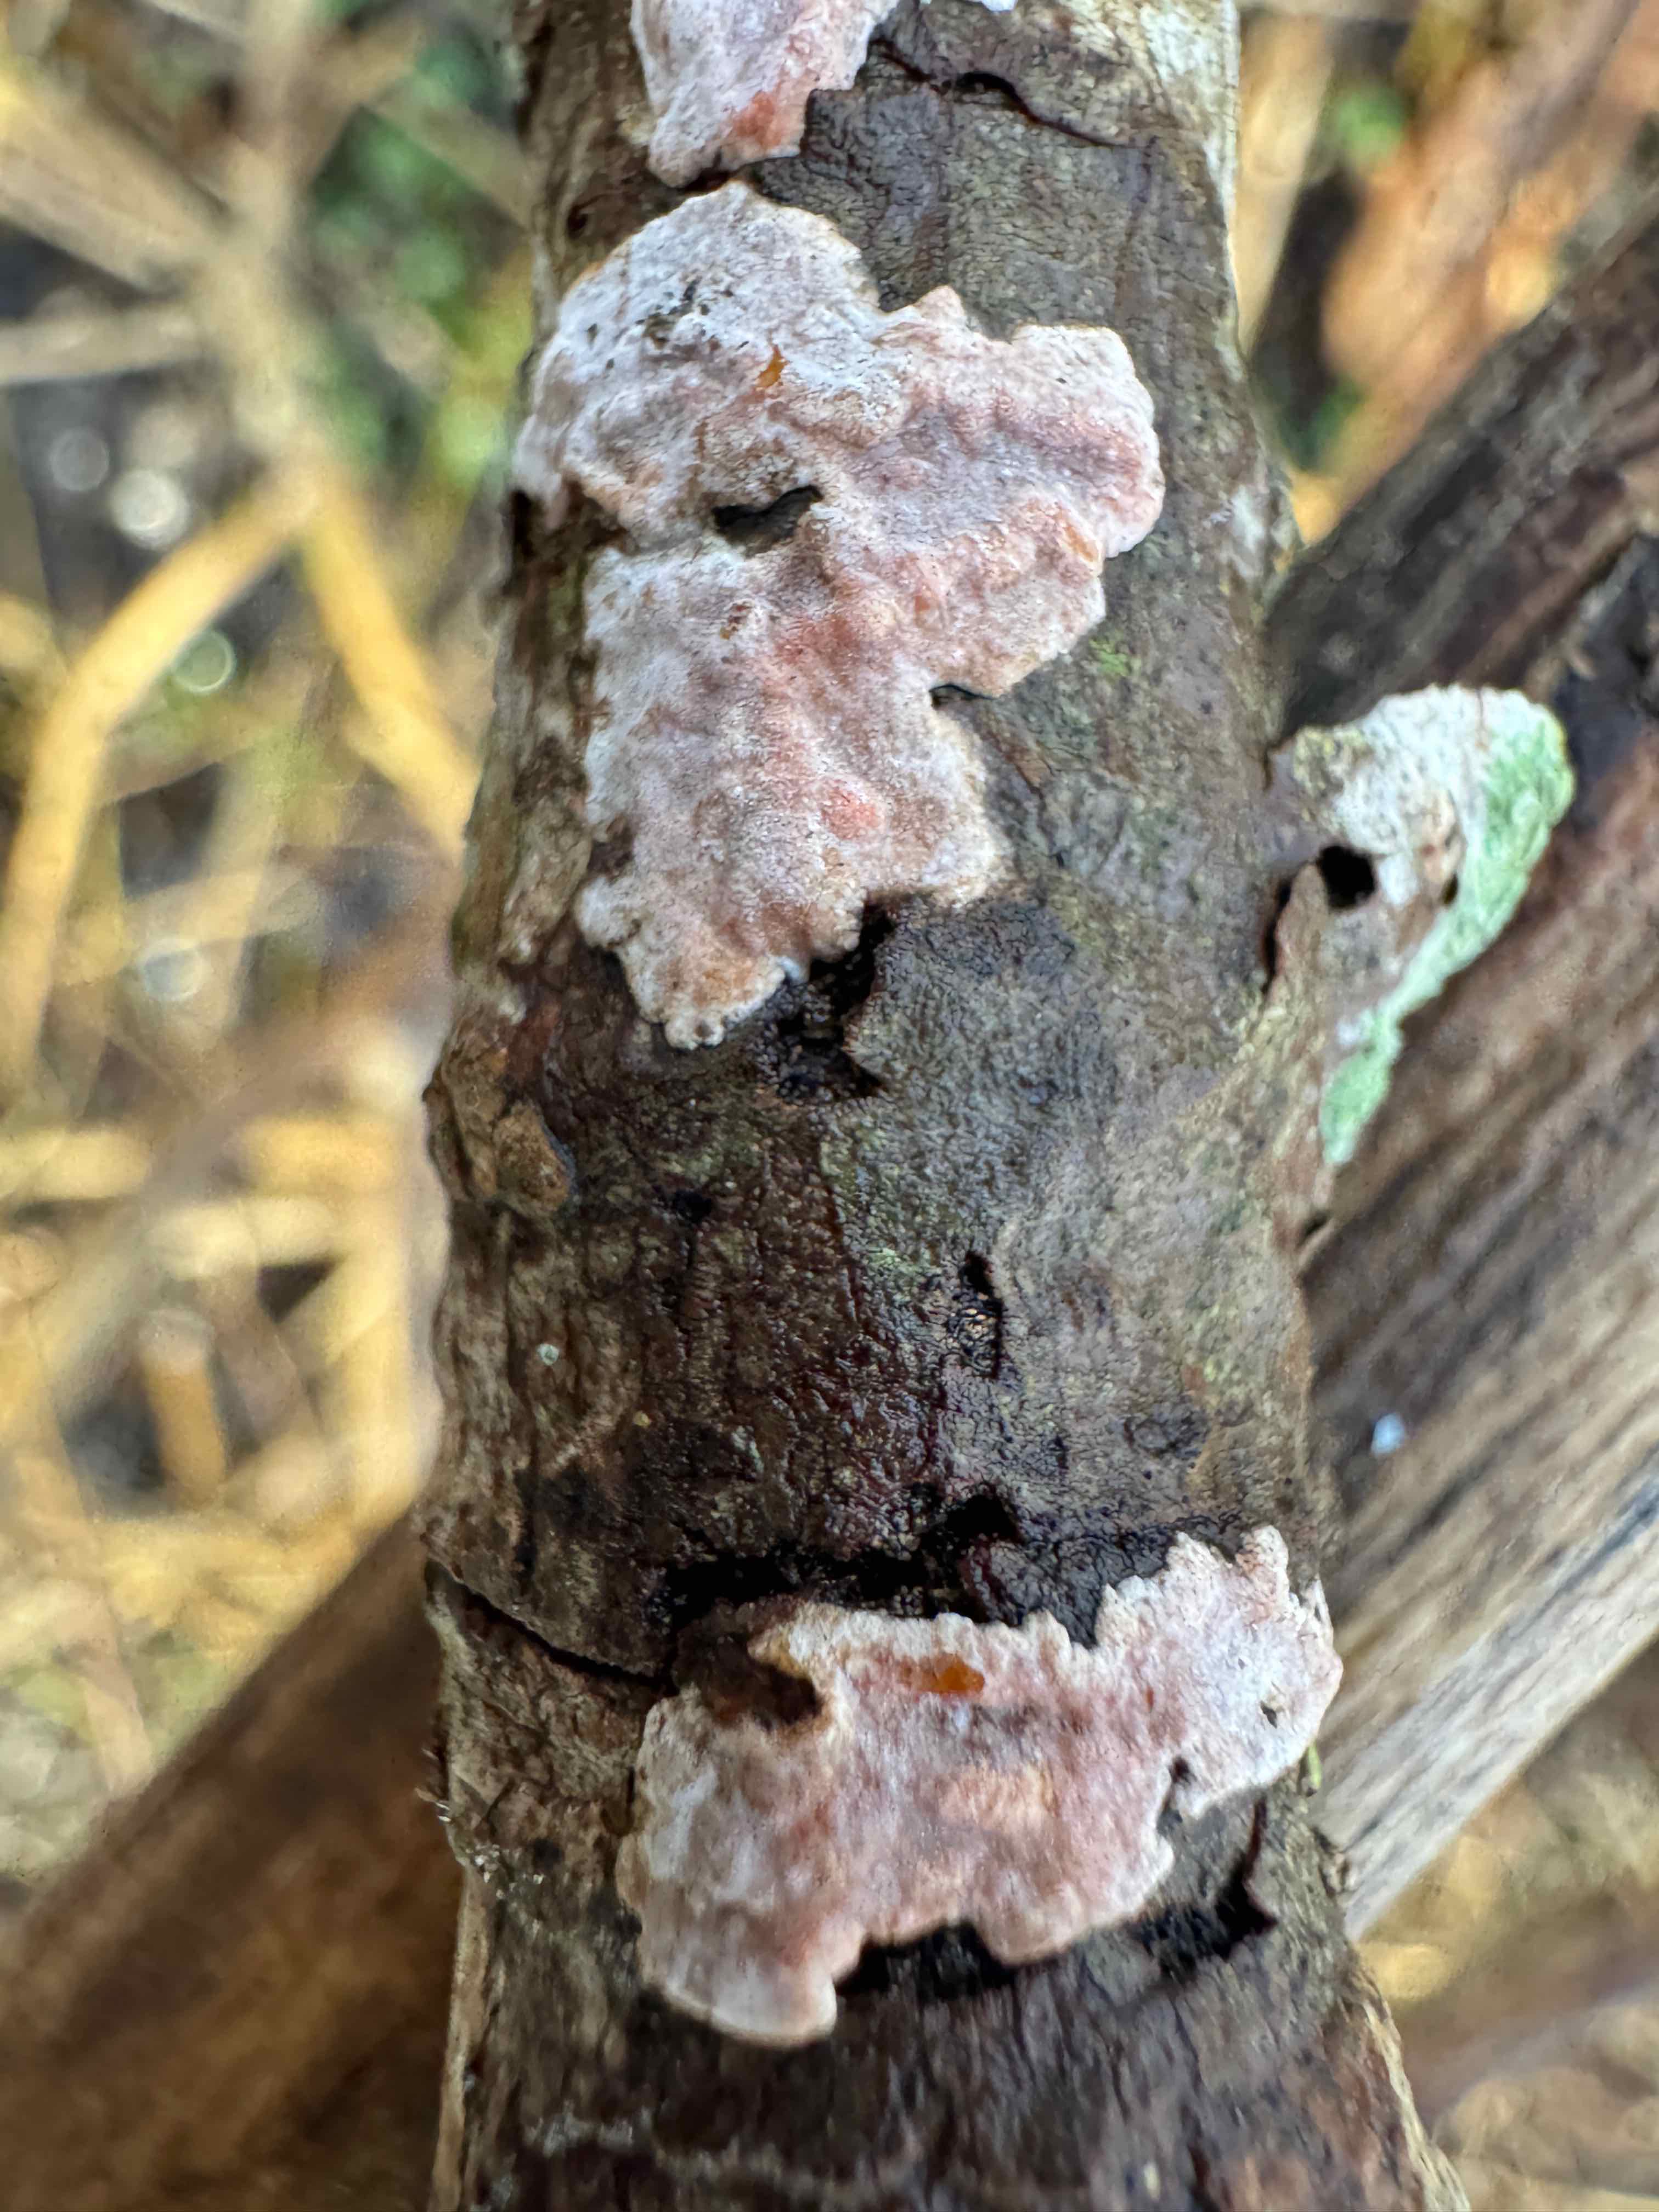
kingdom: Fungi
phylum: Basidiomycota
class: Agaricomycetes
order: Russulales
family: Peniophoraceae
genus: Peniophora
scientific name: Peniophora polygonia
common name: polygon-voksskind
